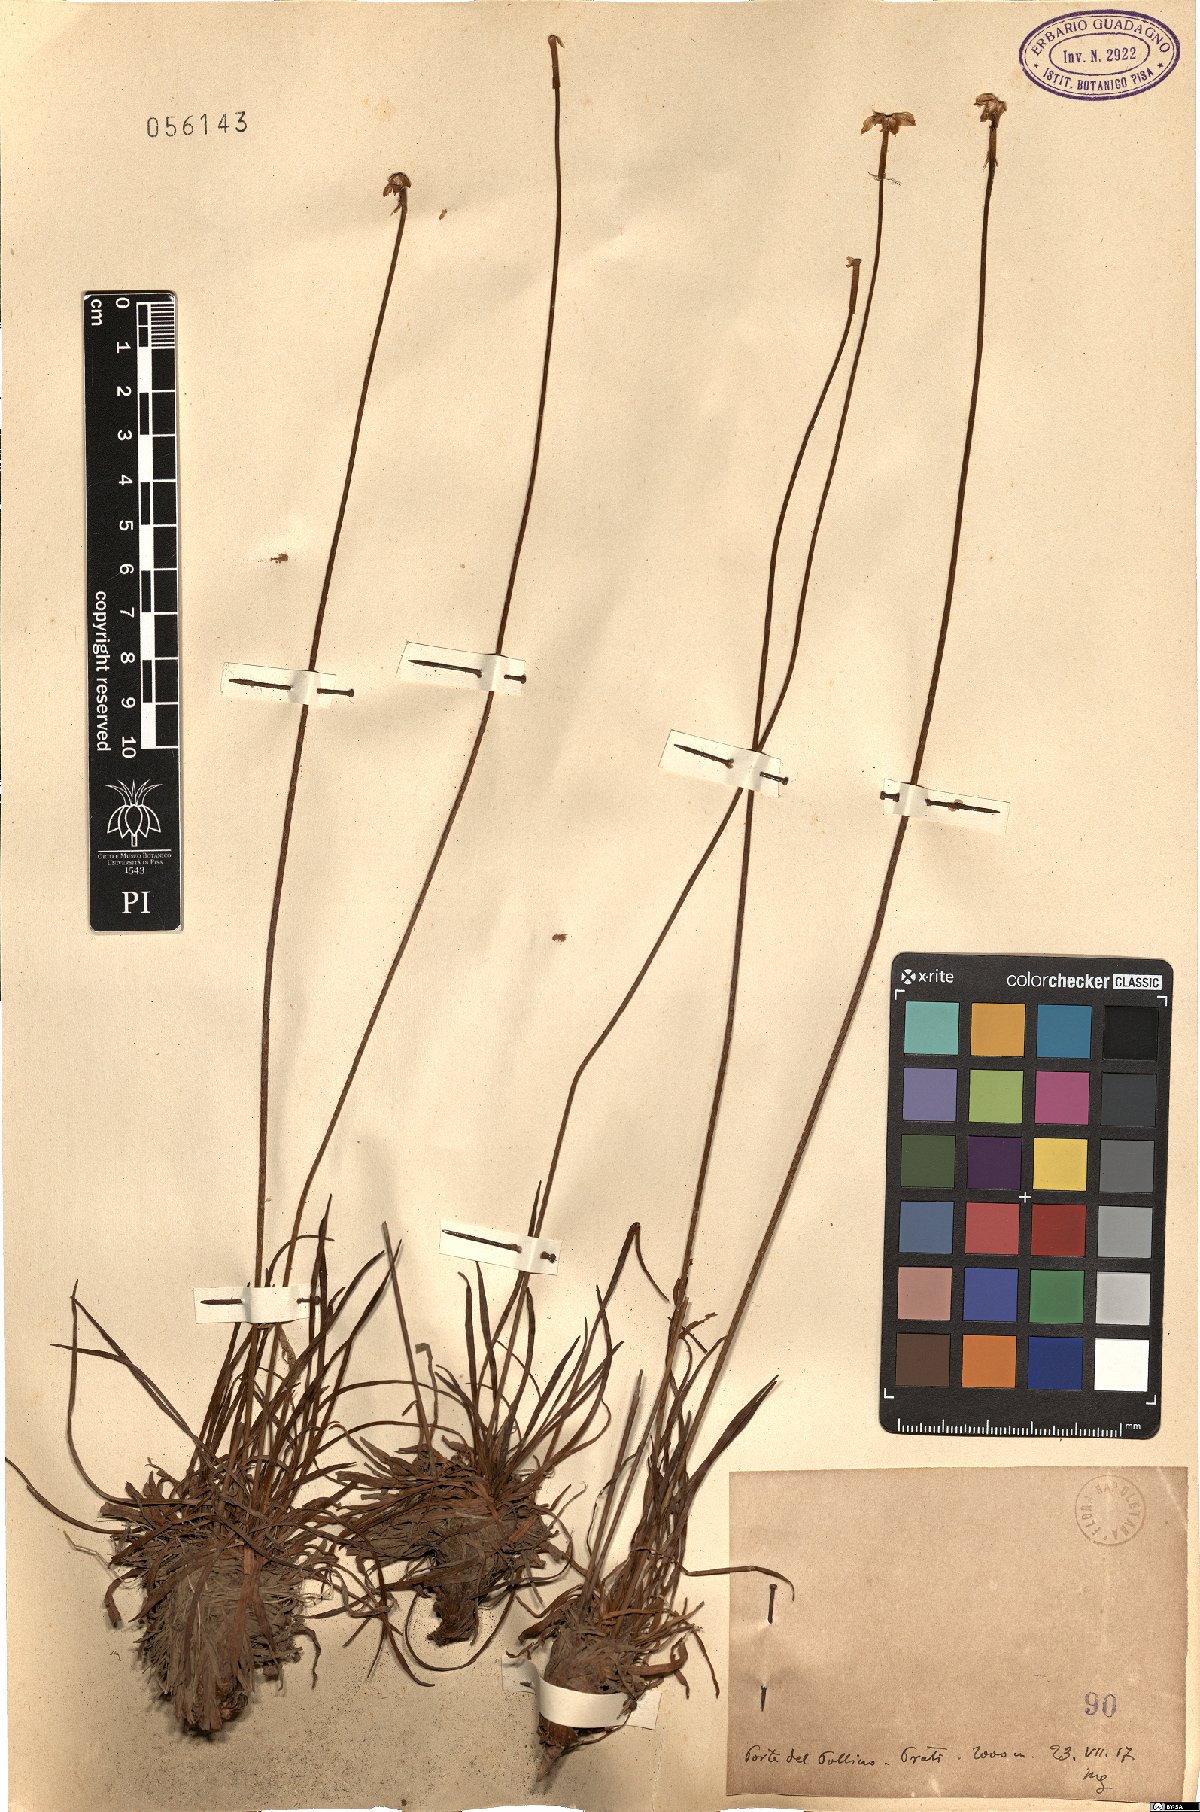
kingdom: Plantae
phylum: Tracheophyta
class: Magnoliopsida
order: Caryophyllales
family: Plumbaginaceae
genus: Armeria
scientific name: Armeria
